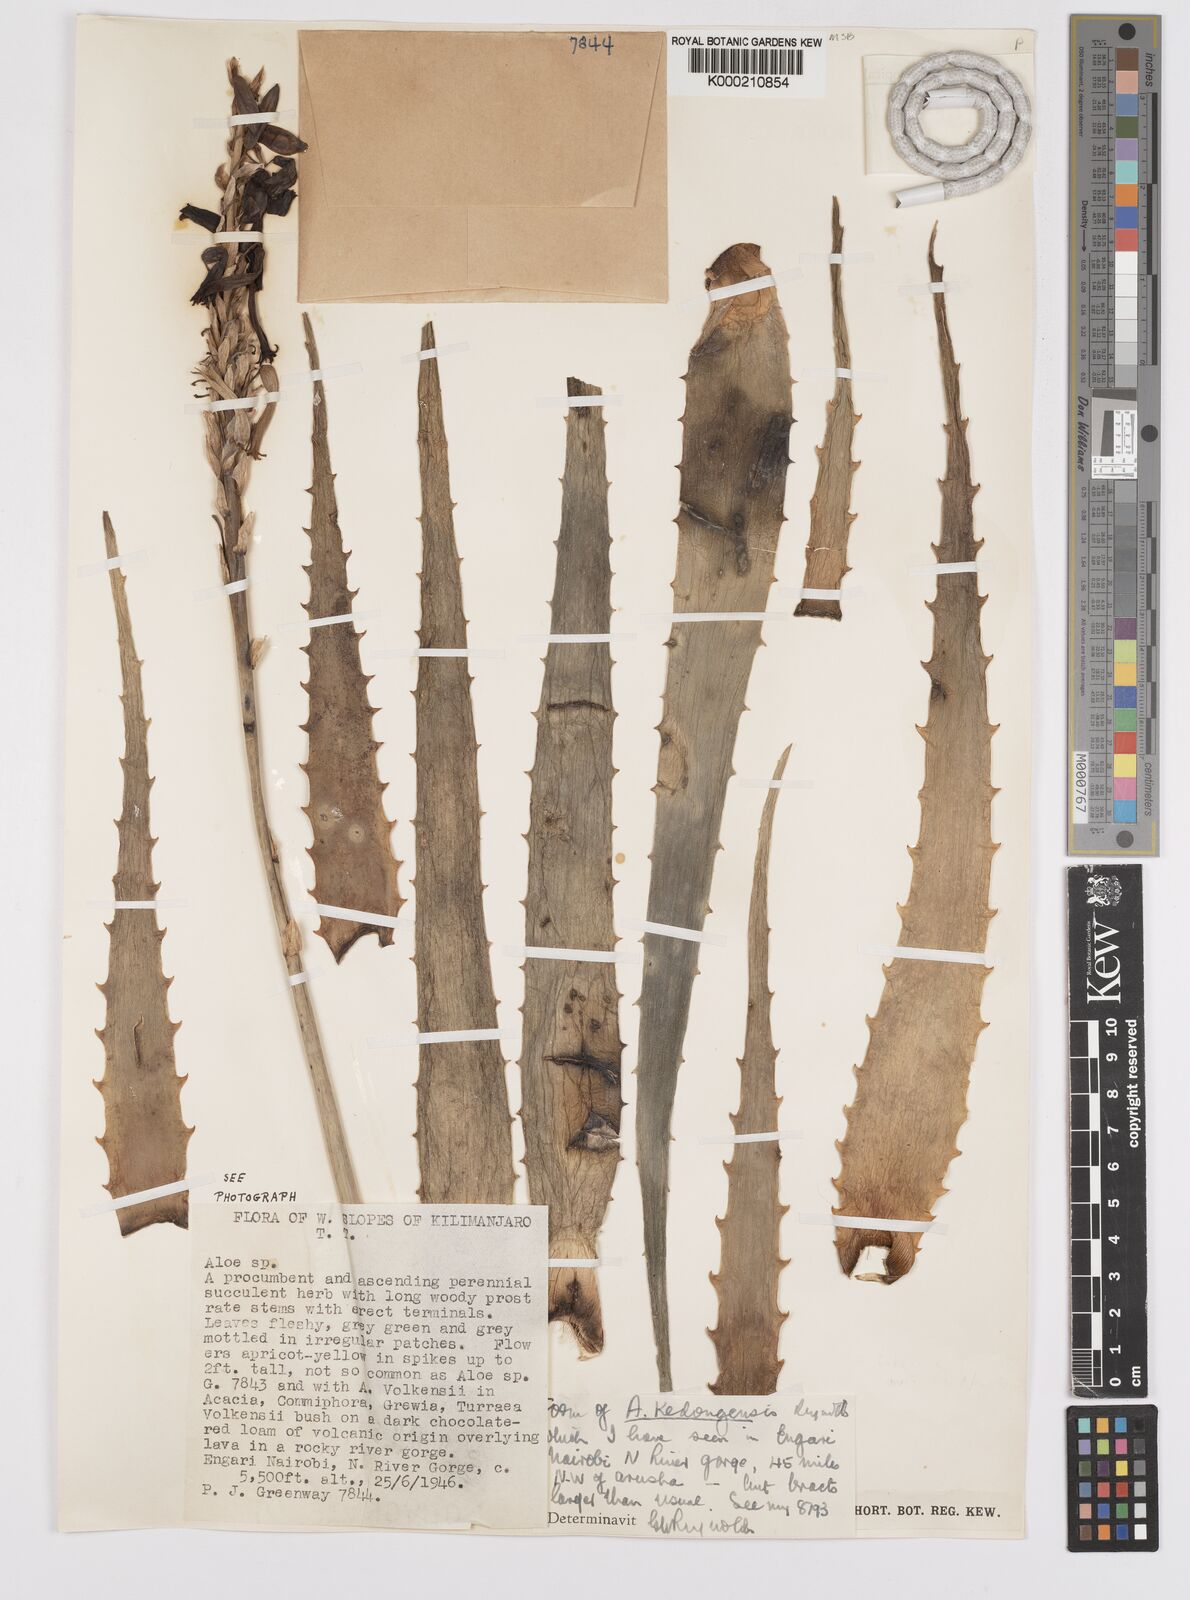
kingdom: Plantae
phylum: Tracheophyta
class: Liliopsida
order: Asparagales
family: Asphodelaceae
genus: Aloe
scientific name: Aloe fibrosa
